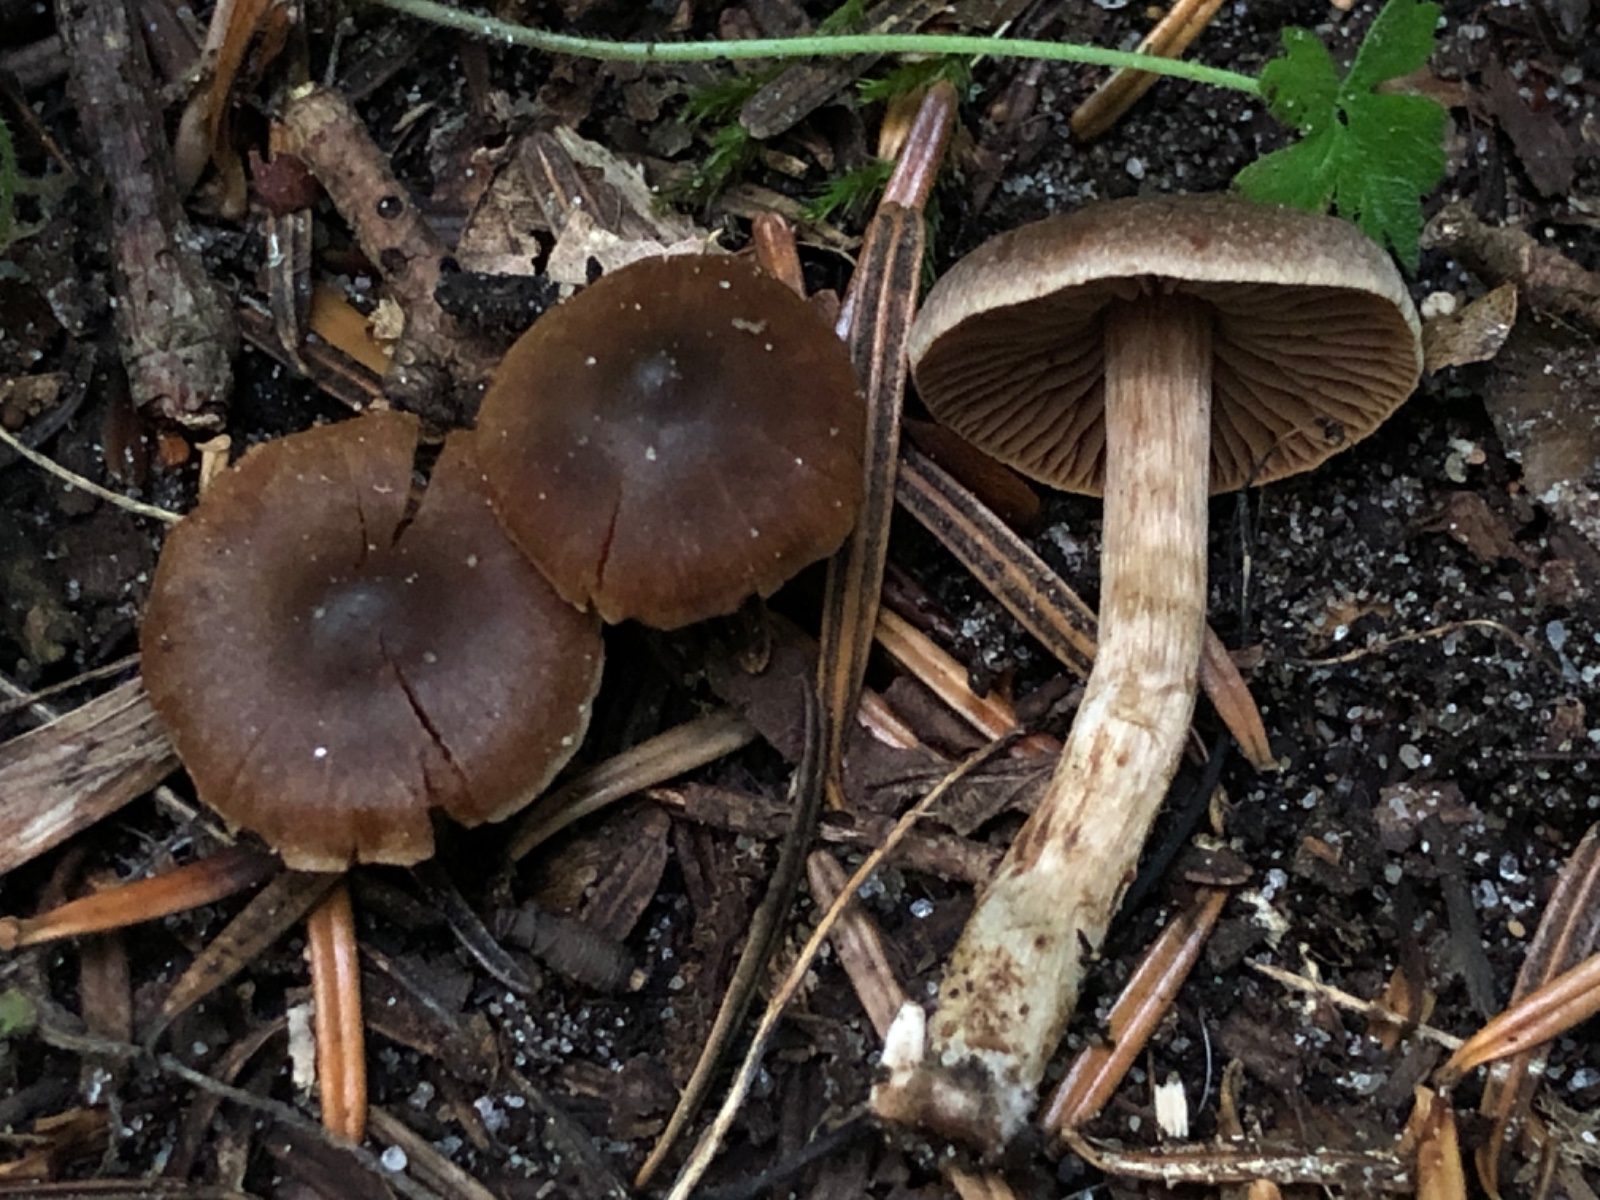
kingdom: Fungi
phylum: Basidiomycota
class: Agaricomycetes
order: Agaricales
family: Cortinariaceae
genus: Cortinarius
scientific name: Cortinarius
